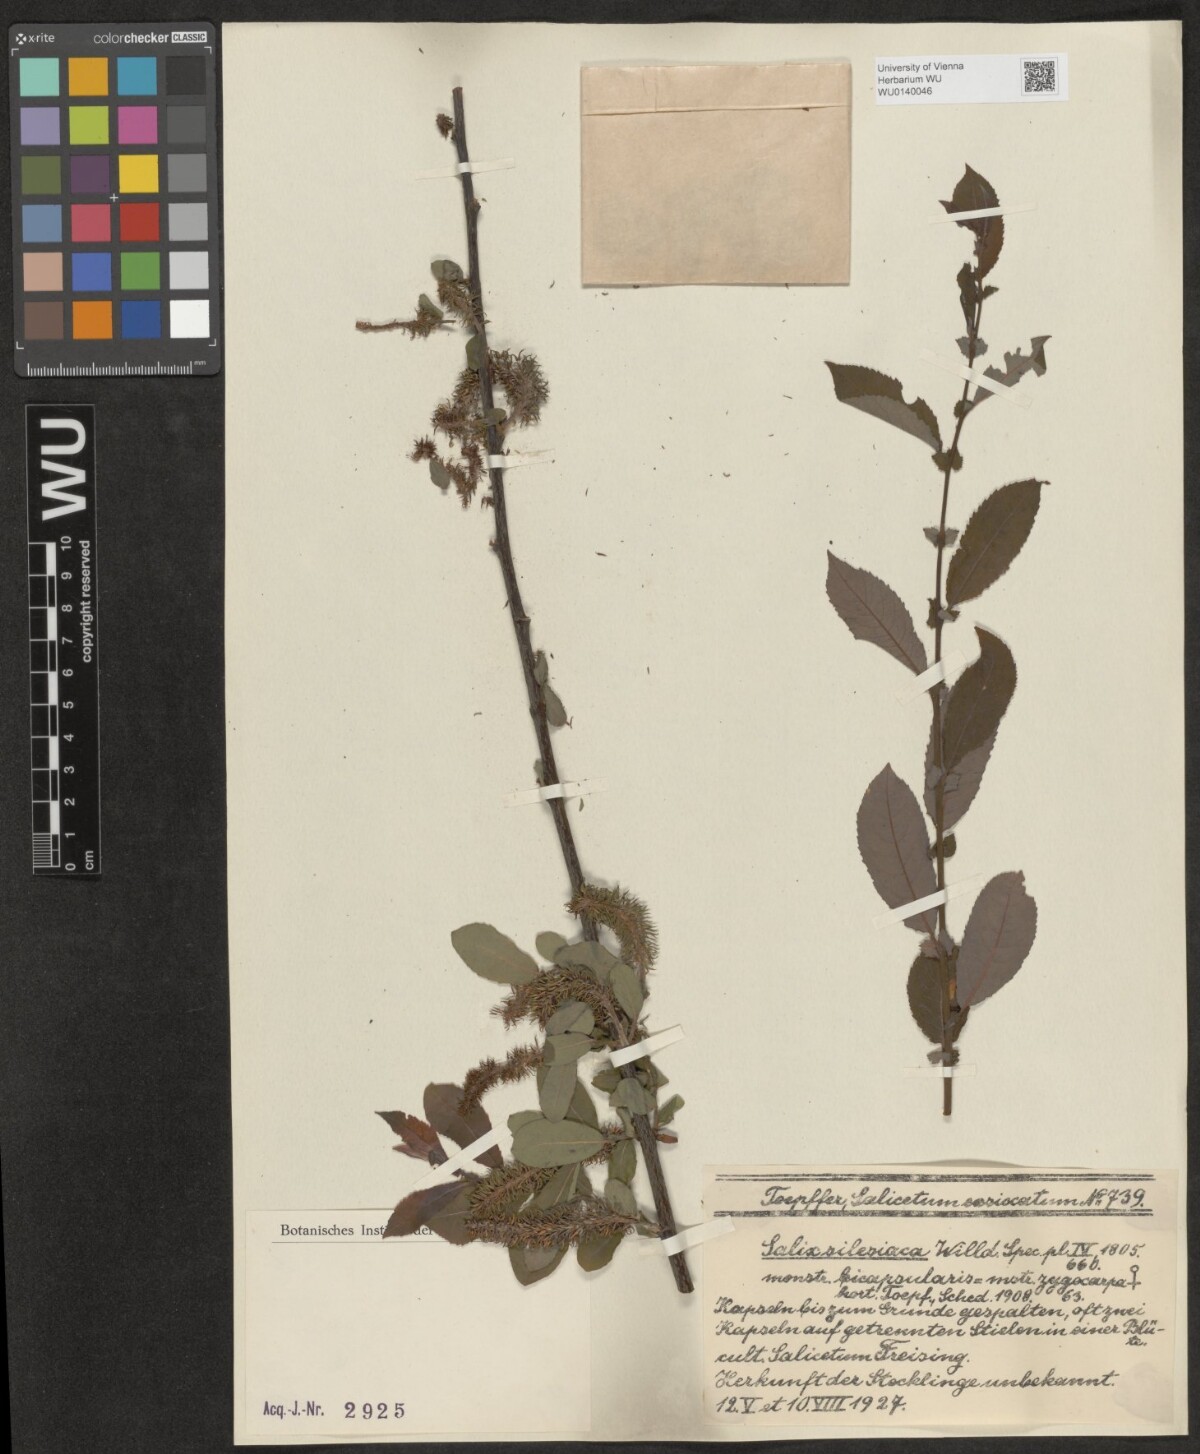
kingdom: Plantae
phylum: Tracheophyta
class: Magnoliopsida
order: Malpighiales
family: Salicaceae
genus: Salix
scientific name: Salix silesiaca
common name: Silesian willow
